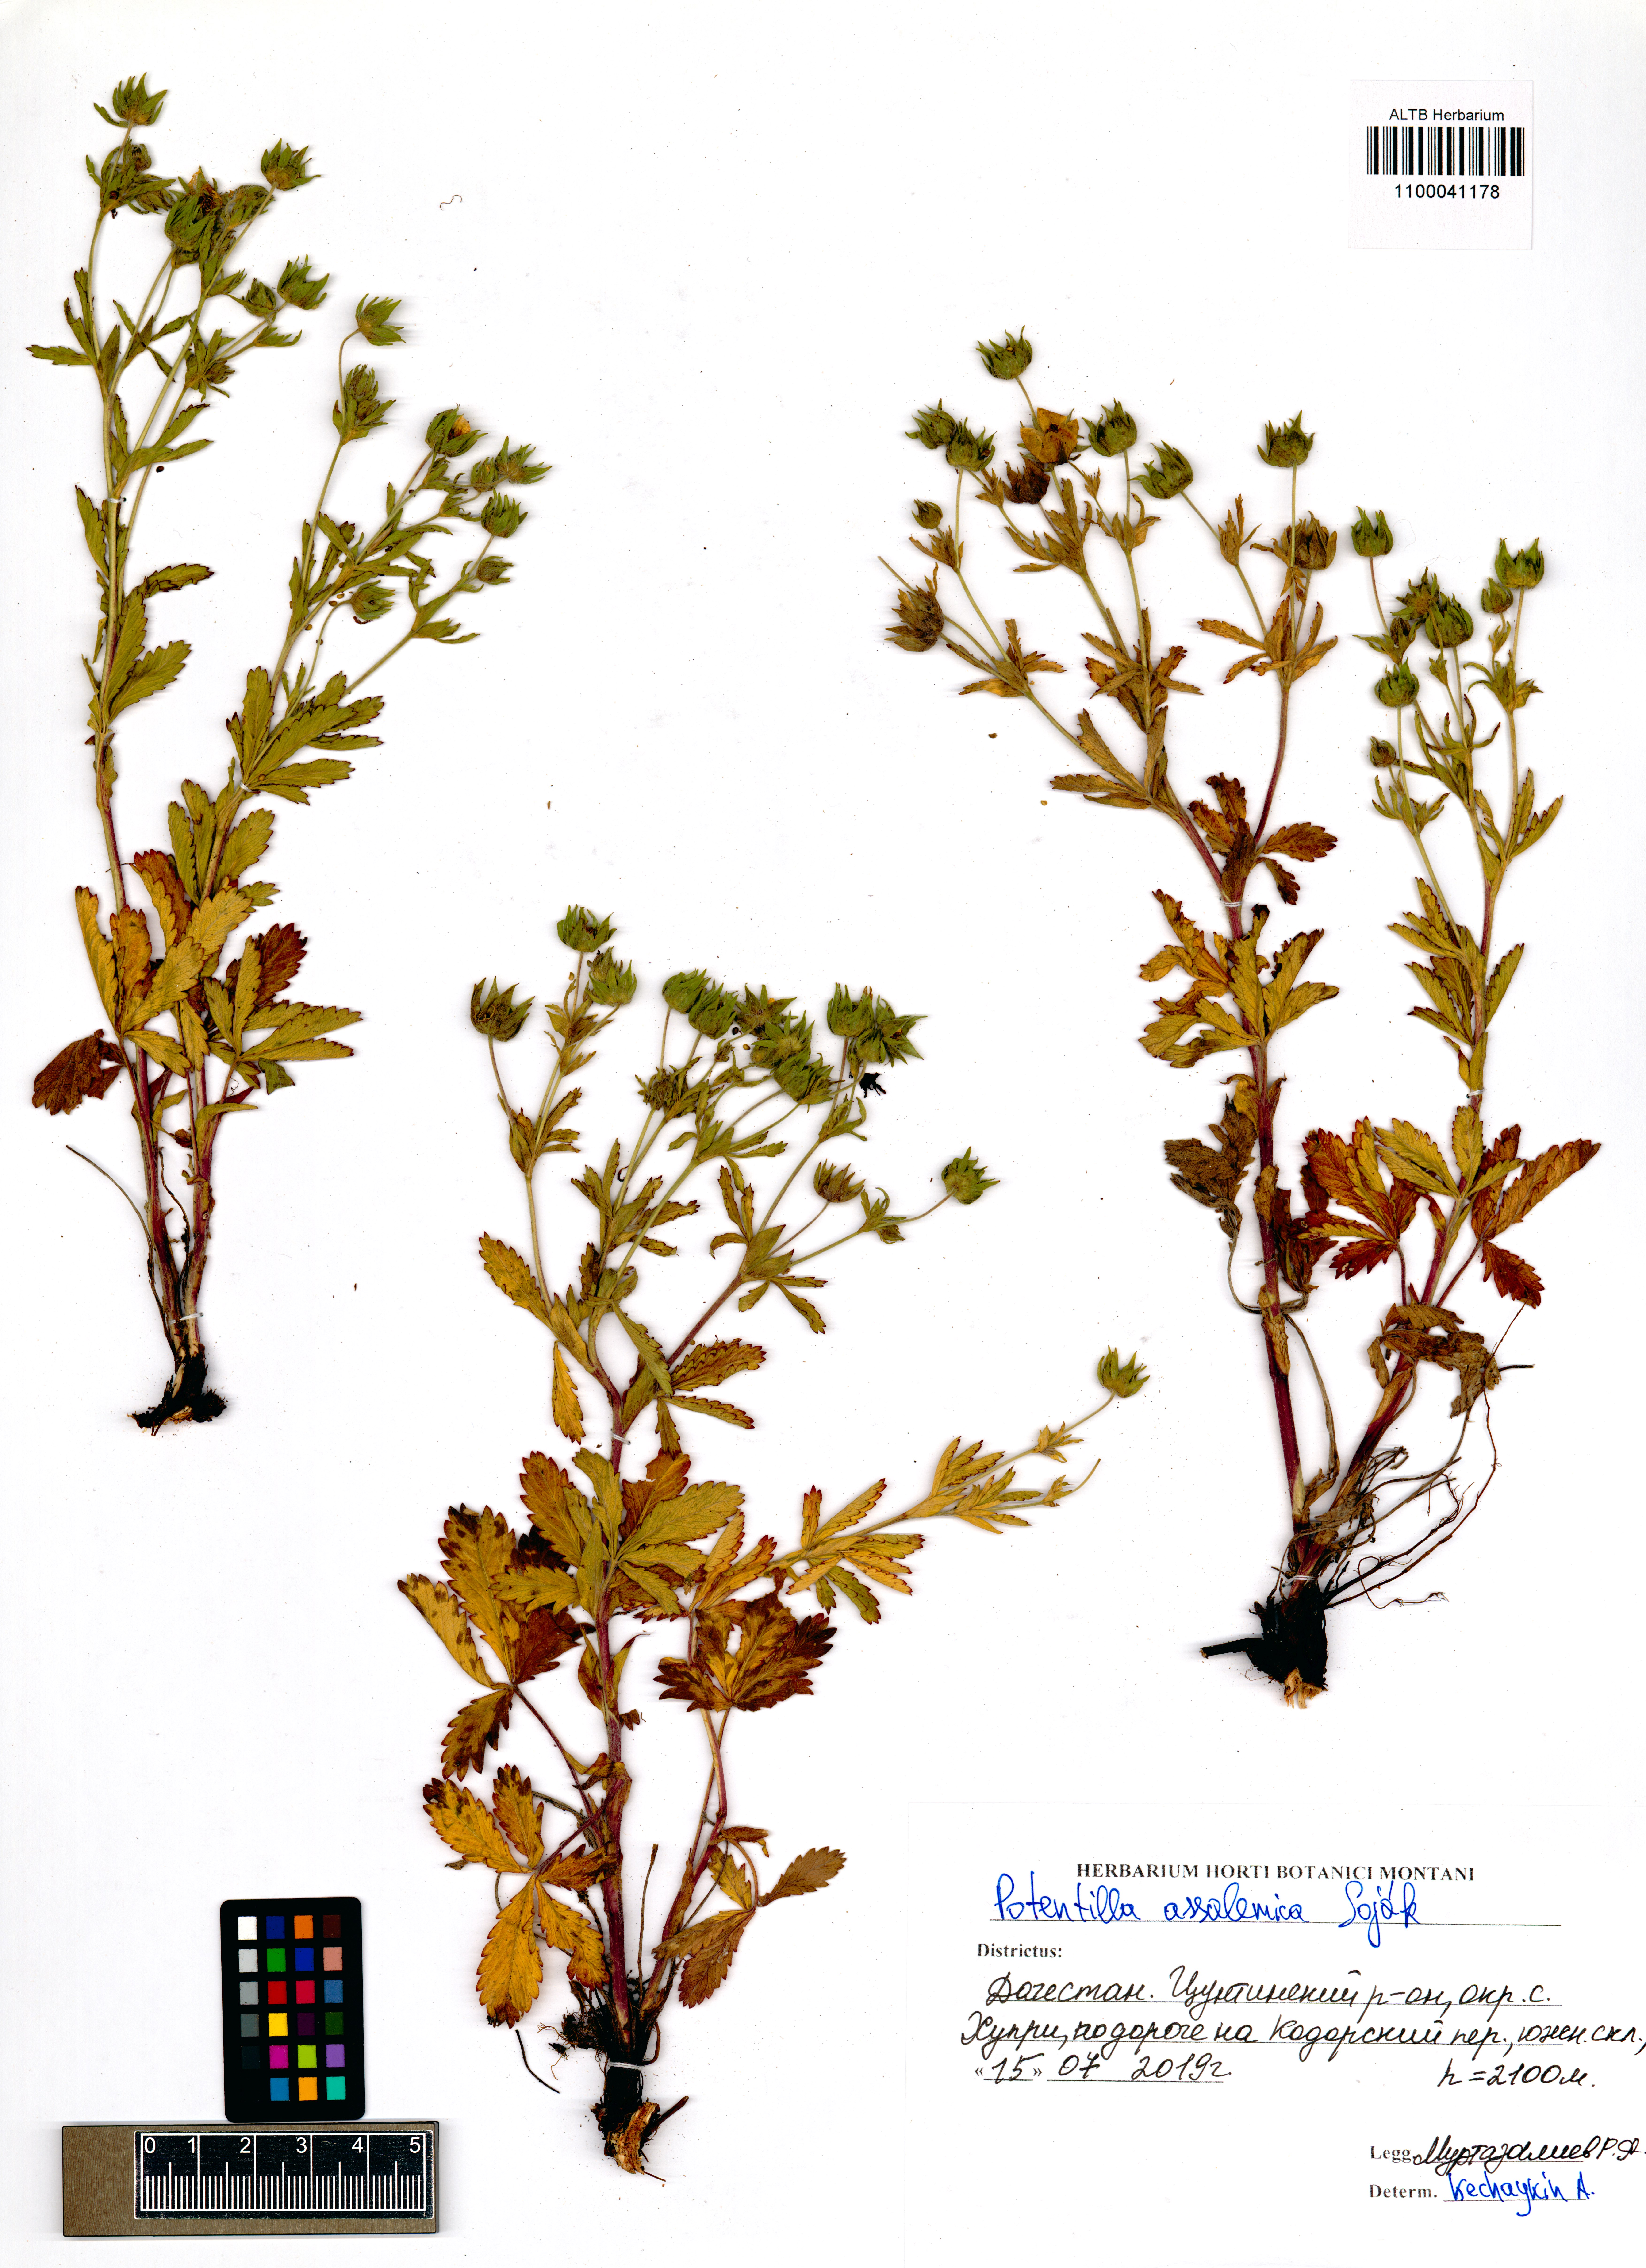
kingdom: Plantae
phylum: Tracheophyta
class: Magnoliopsida
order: Rosales
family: Rosaceae
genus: Potentilla
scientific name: Potentilla assalemica
